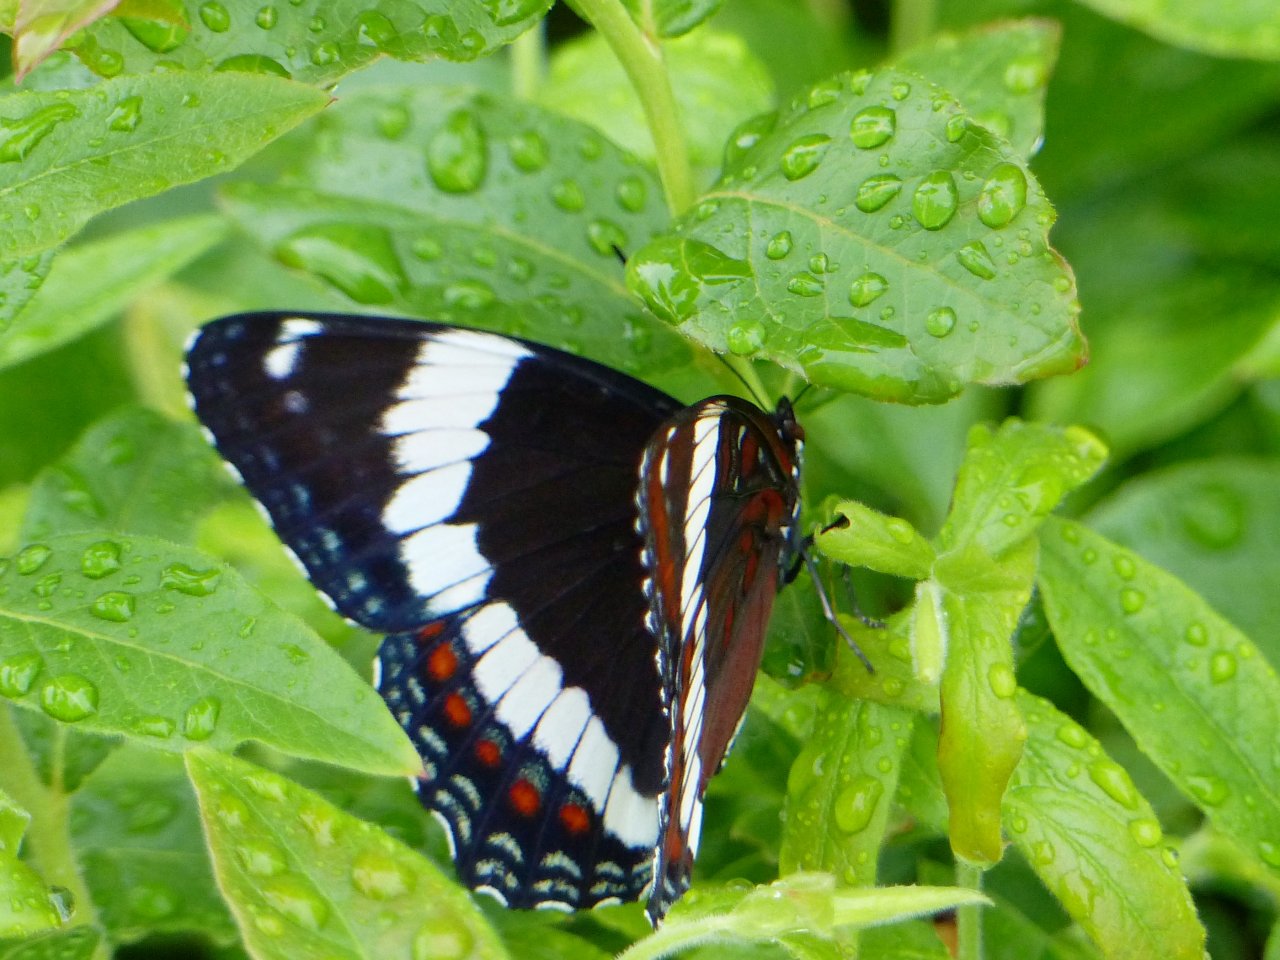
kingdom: Animalia
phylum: Arthropoda
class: Insecta
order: Lepidoptera
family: Nymphalidae
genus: Limenitis
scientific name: Limenitis arthemis
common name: Red-spotted Admiral
